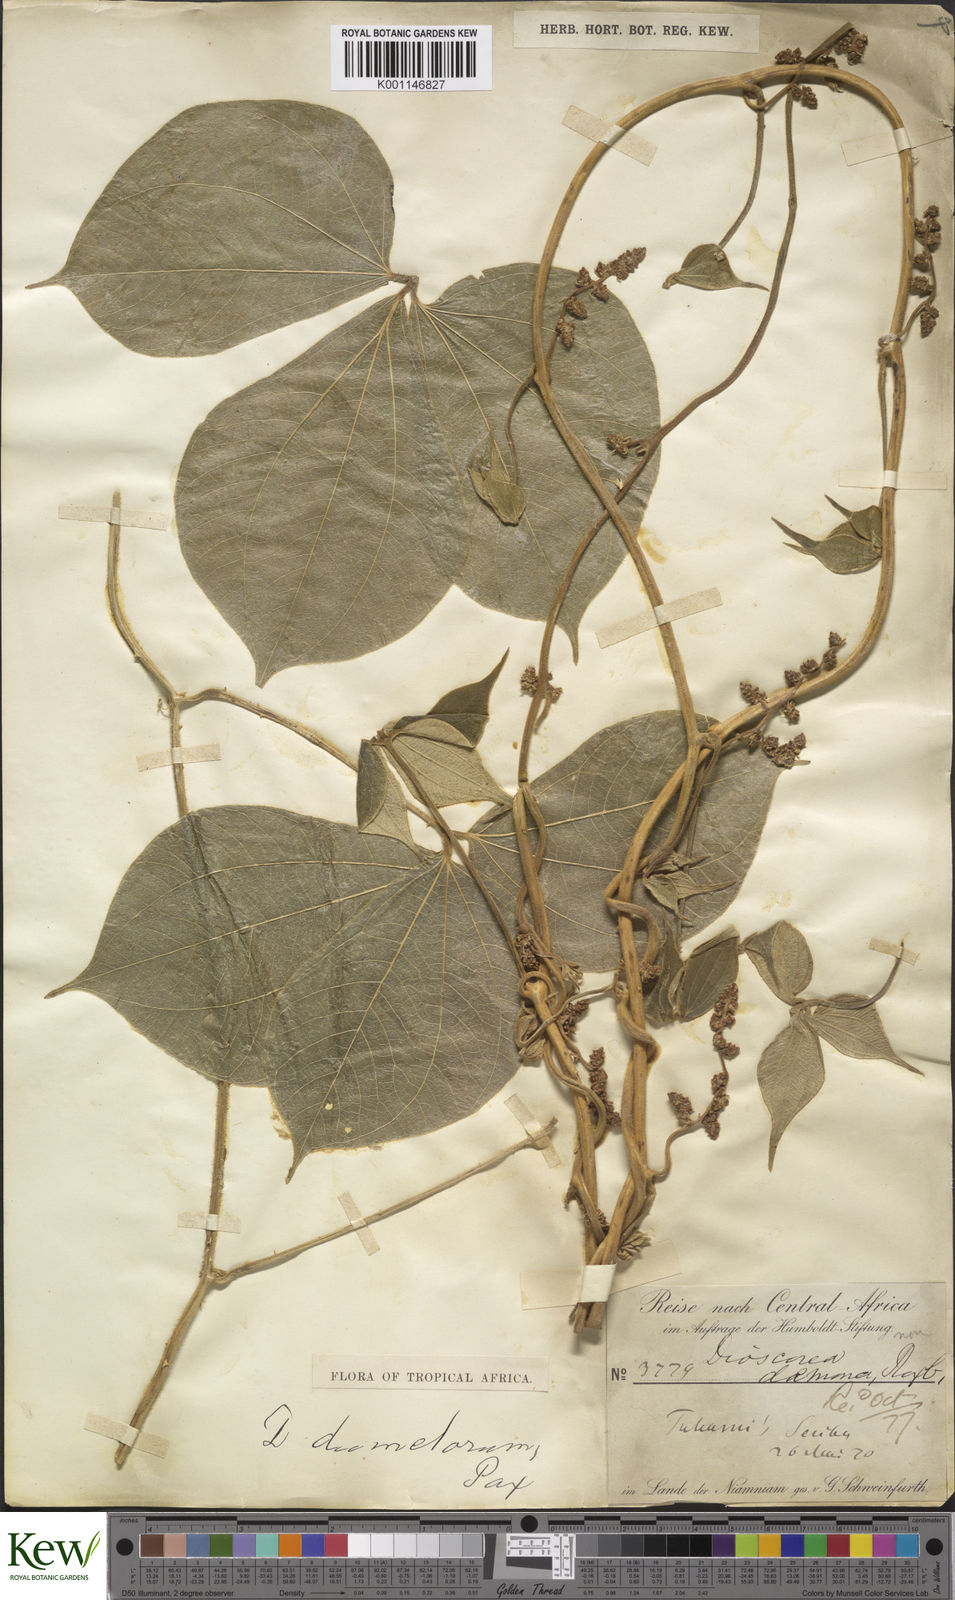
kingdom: Plantae
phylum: Tracheophyta
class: Liliopsida
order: Dioscoreales
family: Dioscoreaceae
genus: Dioscorea
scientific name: Dioscorea dumetorum
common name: African bitter yam
